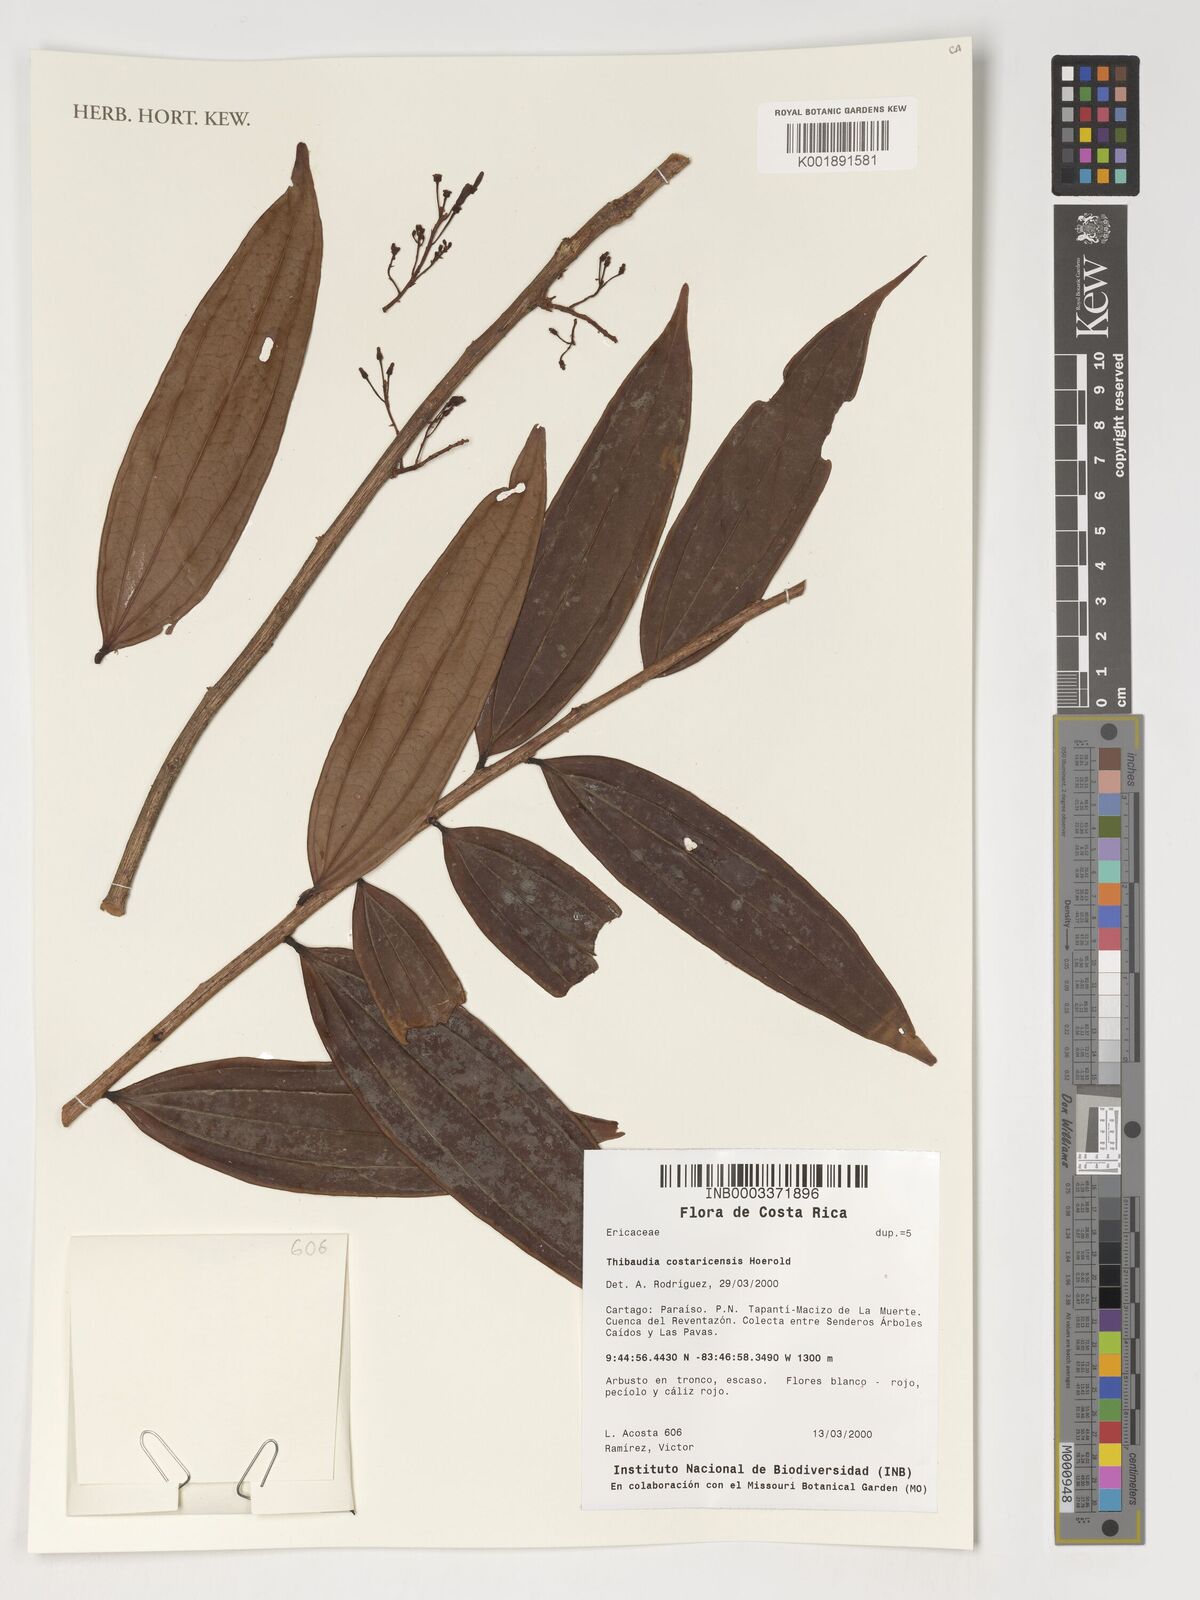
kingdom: Plantae
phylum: Tracheophyta
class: Magnoliopsida
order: Ericales
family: Ericaceae
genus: Thibaudia
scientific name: Thibaudia costaricensis
